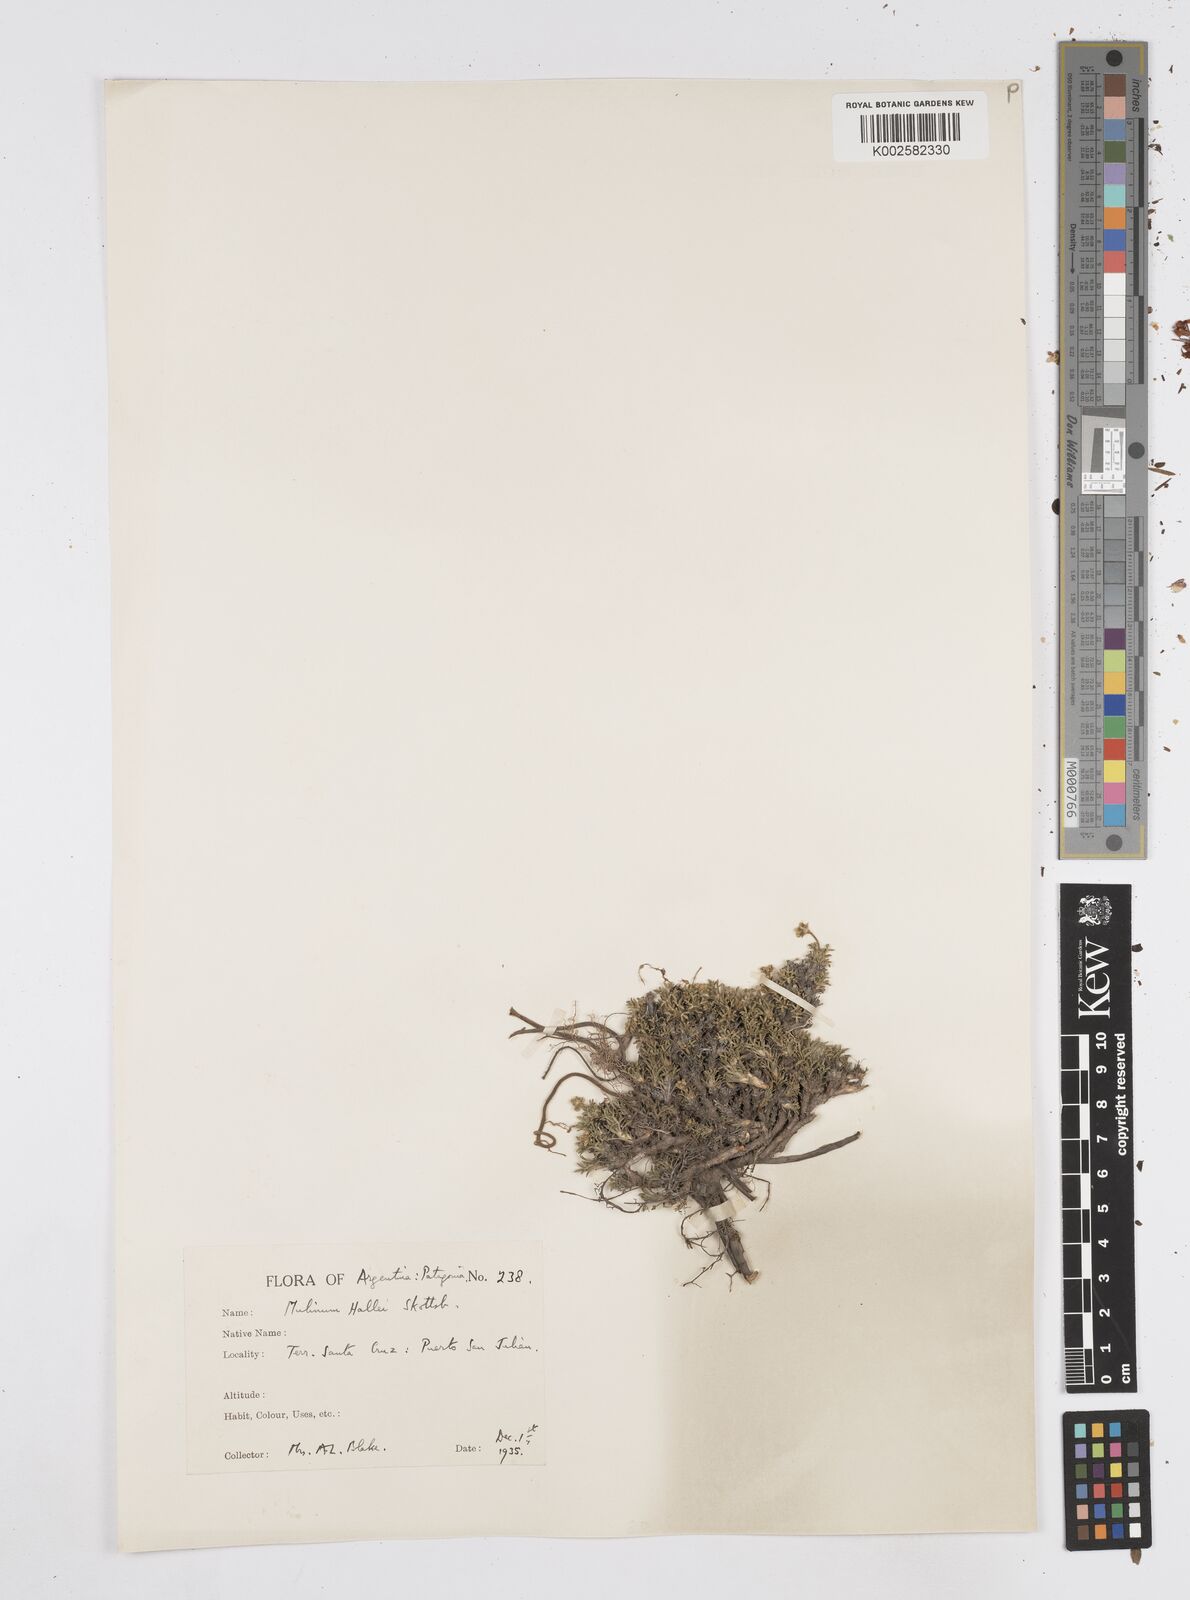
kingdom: Plantae
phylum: Tracheophyta
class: Magnoliopsida
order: Apiales
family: Apiaceae
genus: Azorella
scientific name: Azorella hallei
